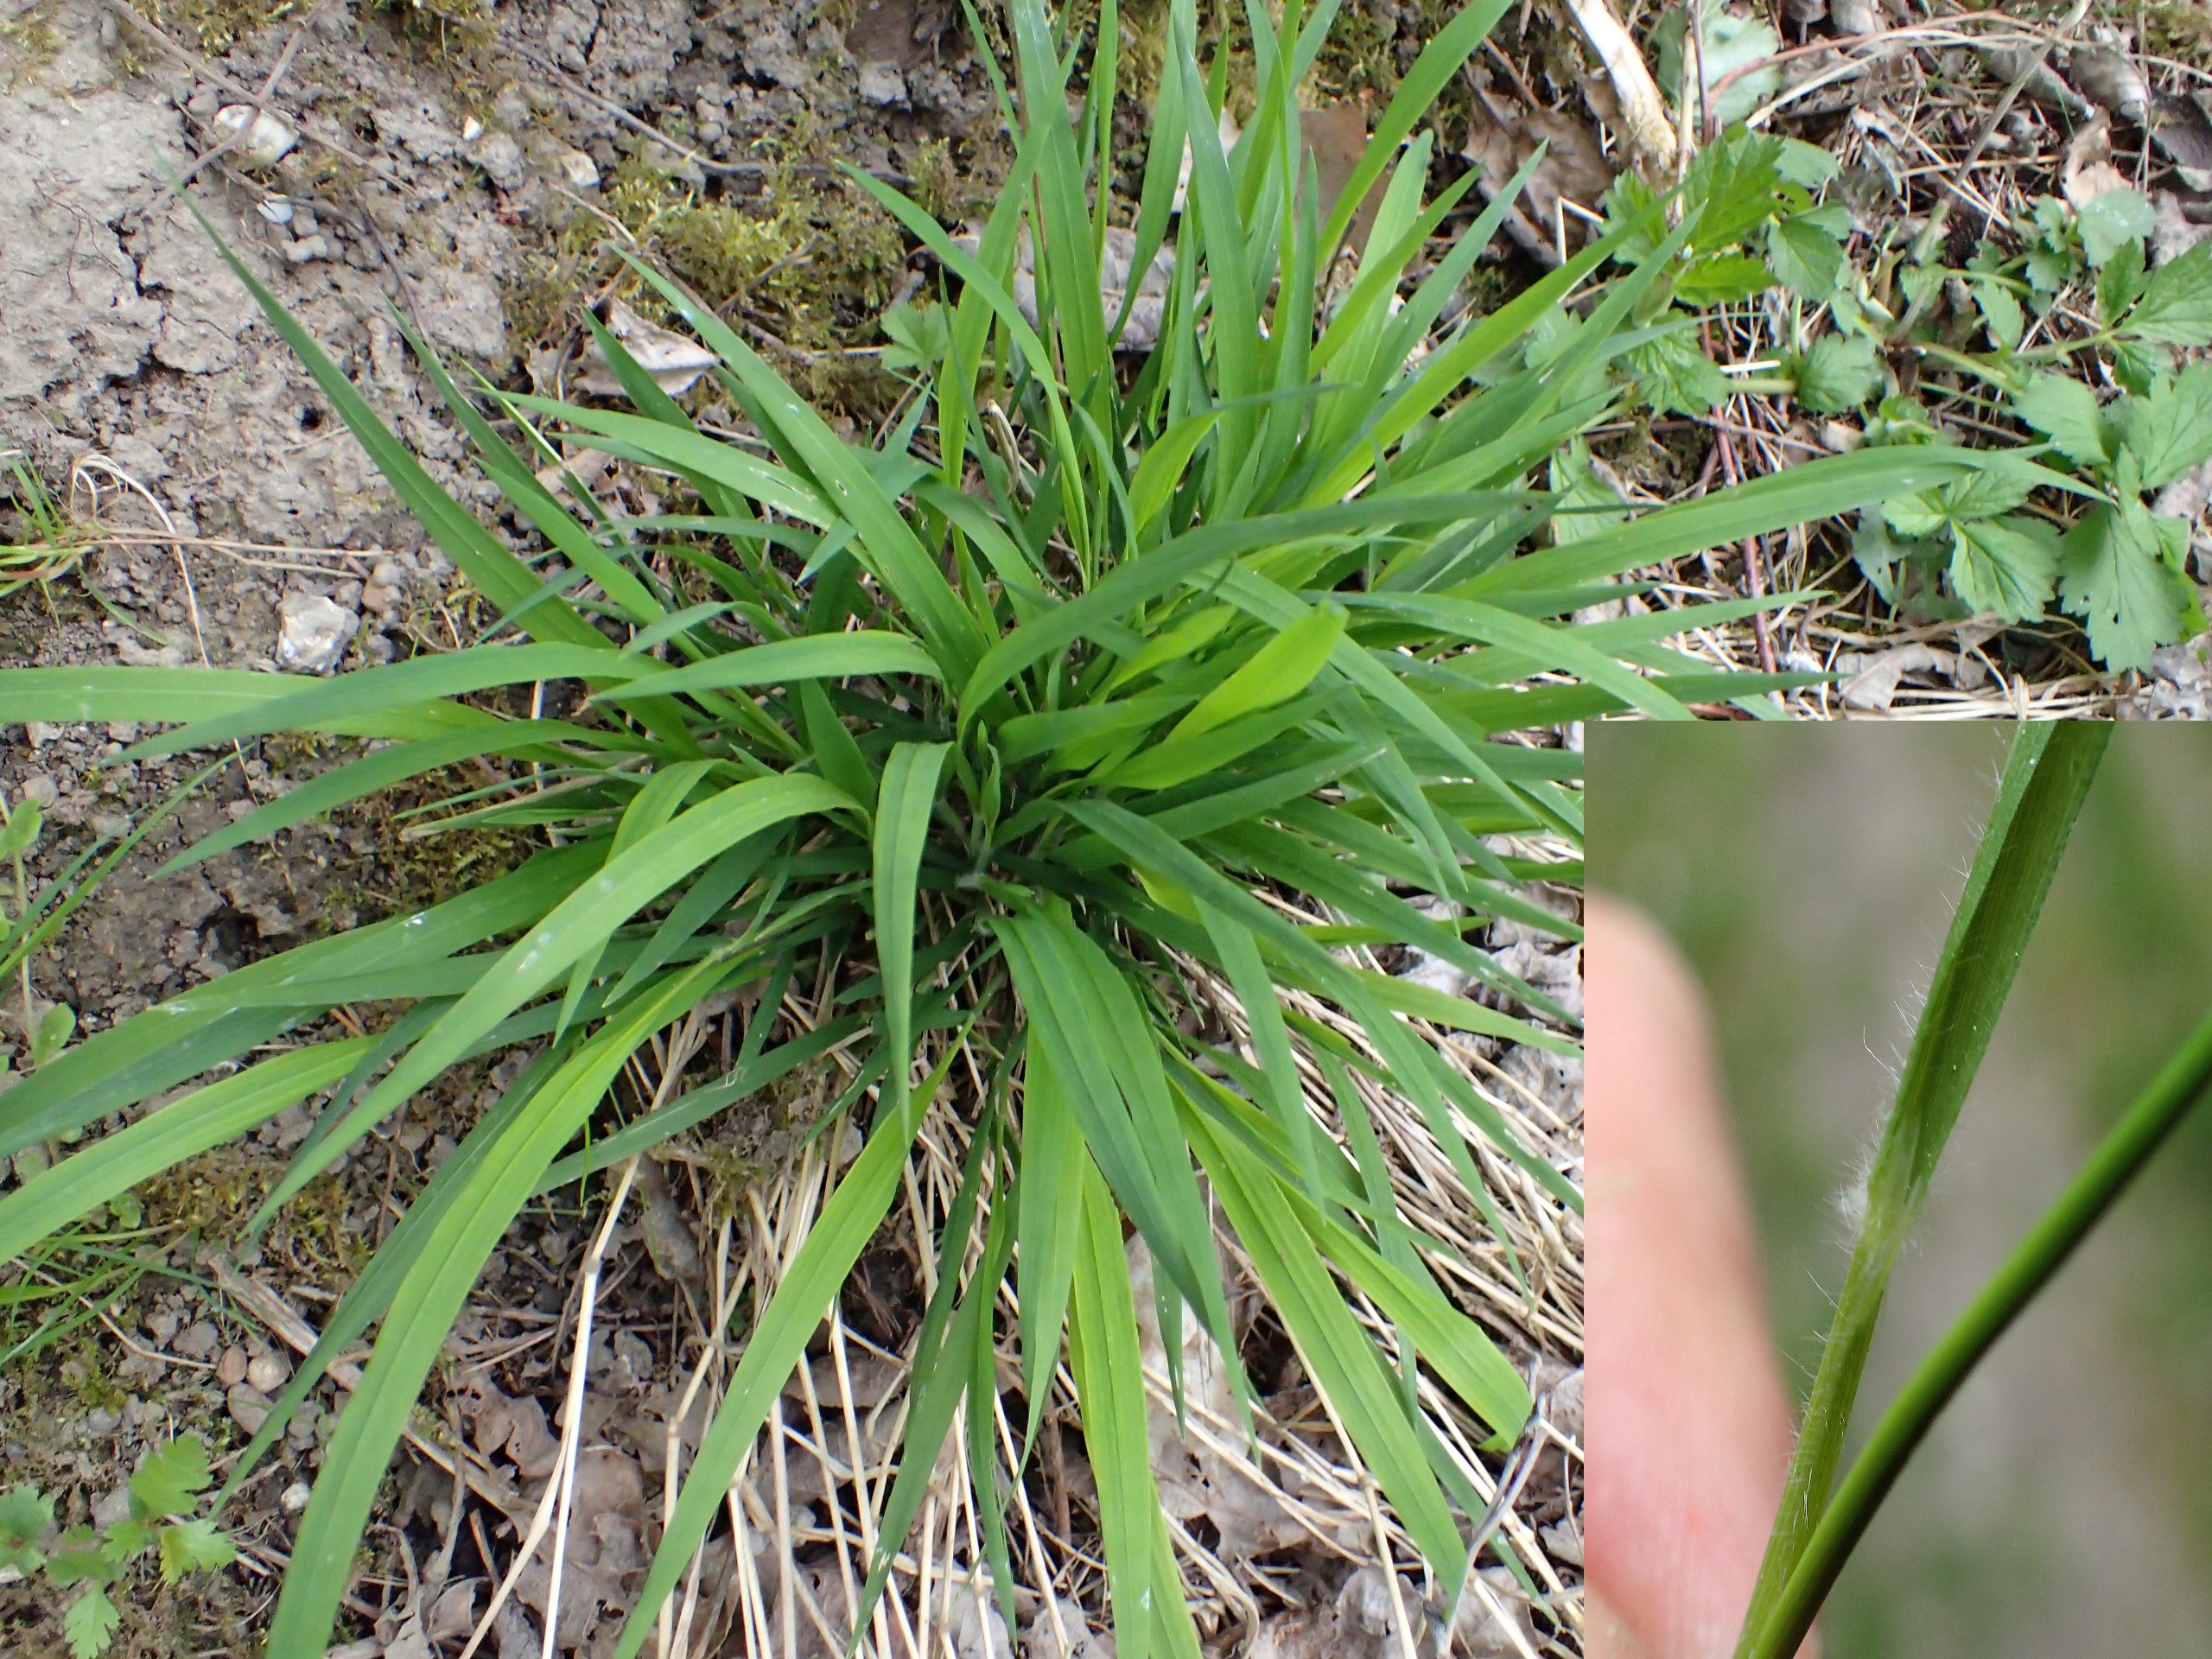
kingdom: Plantae
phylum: Tracheophyta
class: Liliopsida
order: Poales
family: Poaceae
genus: Brachypodium
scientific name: Brachypodium sylvaticum
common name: Skov-stilkaks
